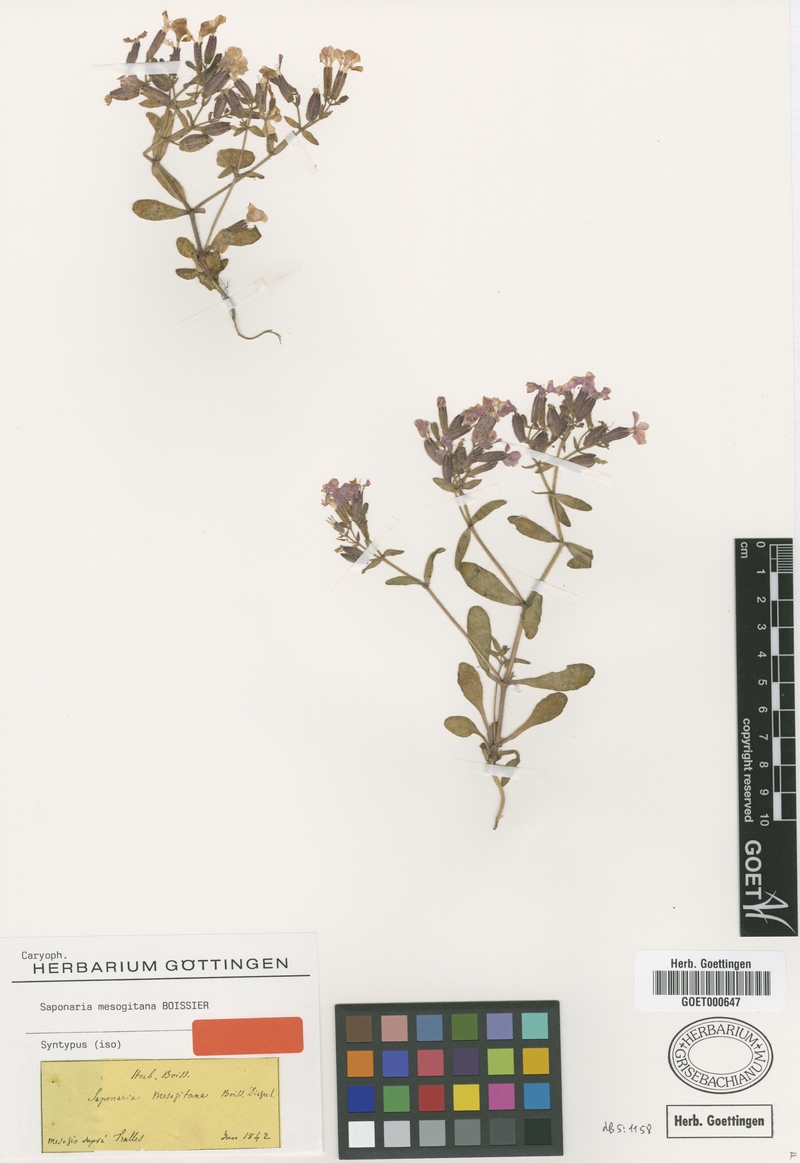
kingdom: Plantae
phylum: Tracheophyta
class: Magnoliopsida
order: Caryophyllales
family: Caryophyllaceae
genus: Saponaria
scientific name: Saponaria mesogitana
